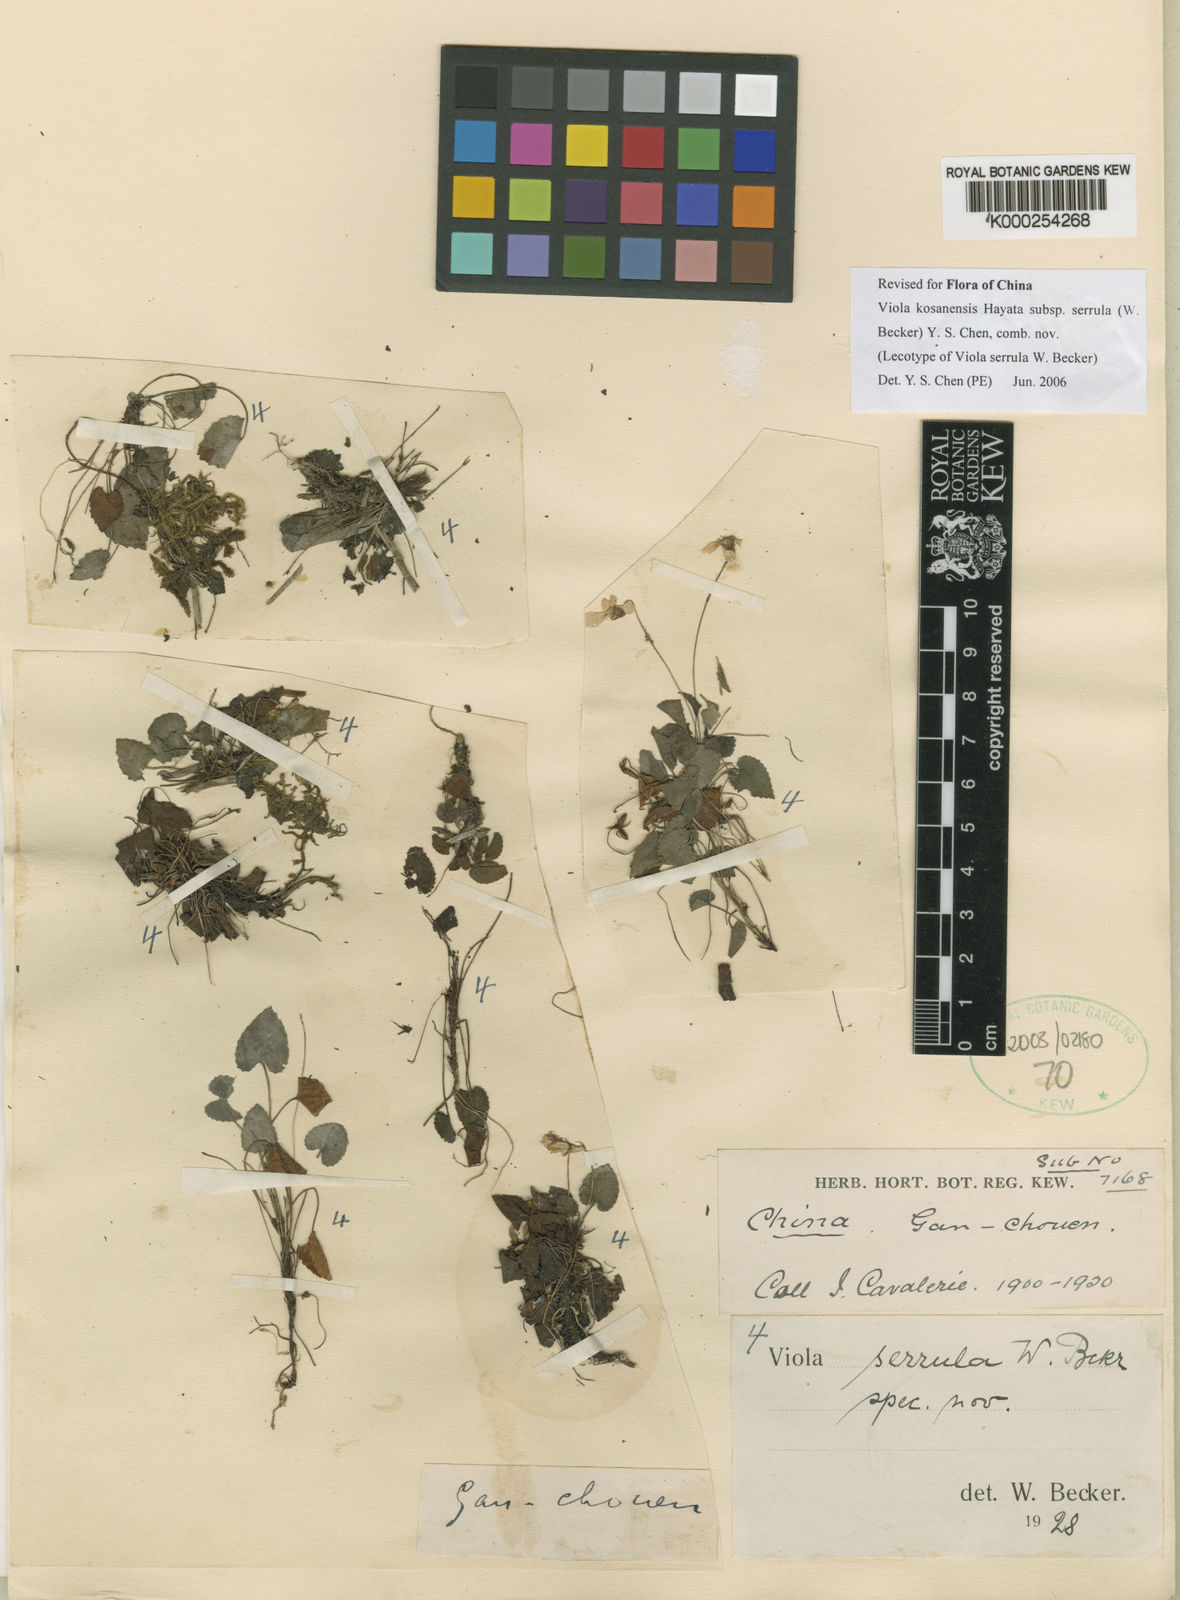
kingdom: Plantae
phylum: Tracheophyta
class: Magnoliopsida
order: Malpighiales
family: Violaceae
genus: Viola
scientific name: Viola serrula
